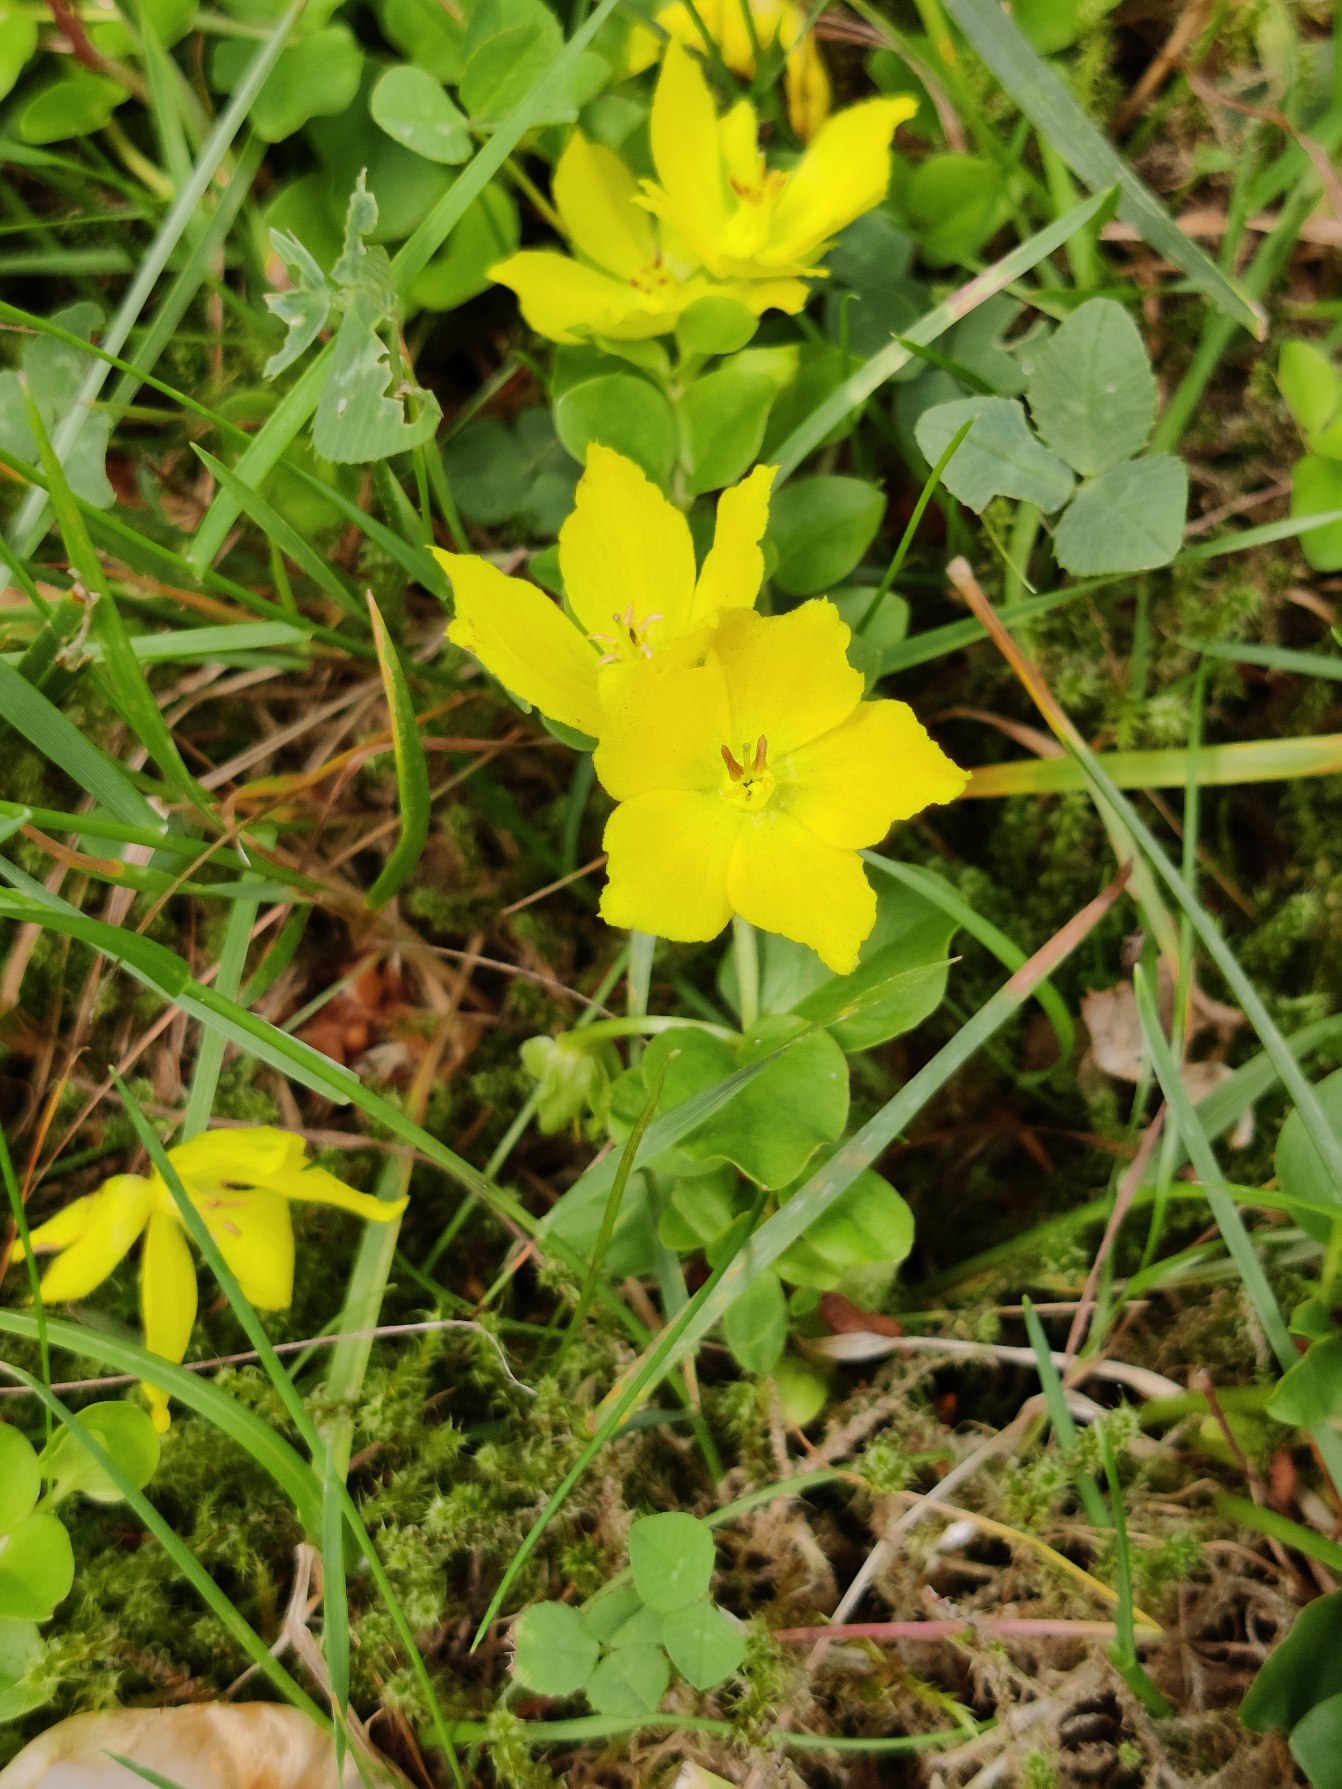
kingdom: Plantae
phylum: Tracheophyta
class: Magnoliopsida
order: Ericales
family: Primulaceae
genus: Lysimachia
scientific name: Lysimachia nummularia
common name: Pengebladet fredløs
